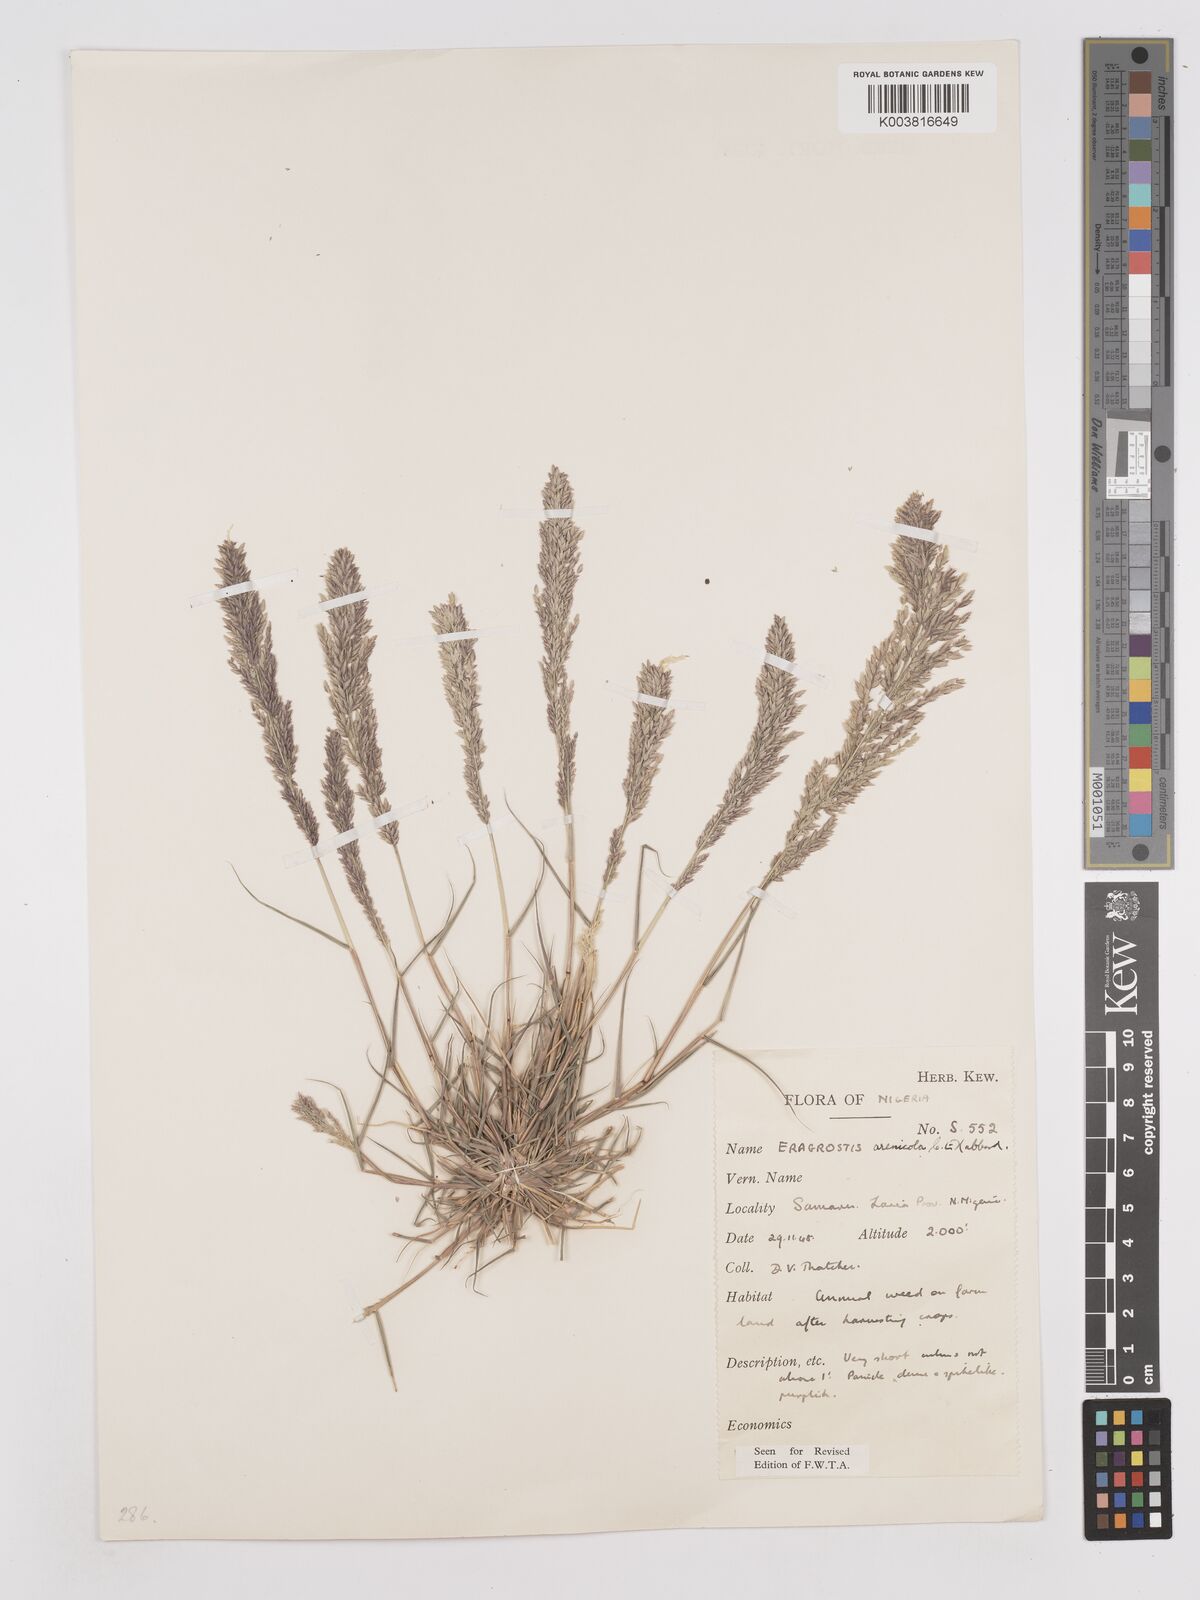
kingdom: Plantae
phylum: Tracheophyta
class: Liliopsida
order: Poales
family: Poaceae
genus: Eragrostis
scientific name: Eragrostis arenicola
